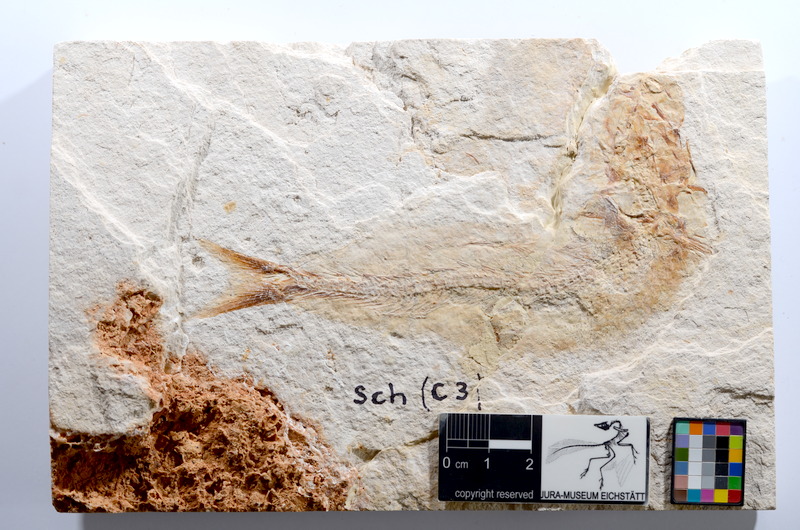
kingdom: Animalia
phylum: Chordata
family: Ascalaboidae
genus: Tharsis
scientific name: Tharsis dubius
